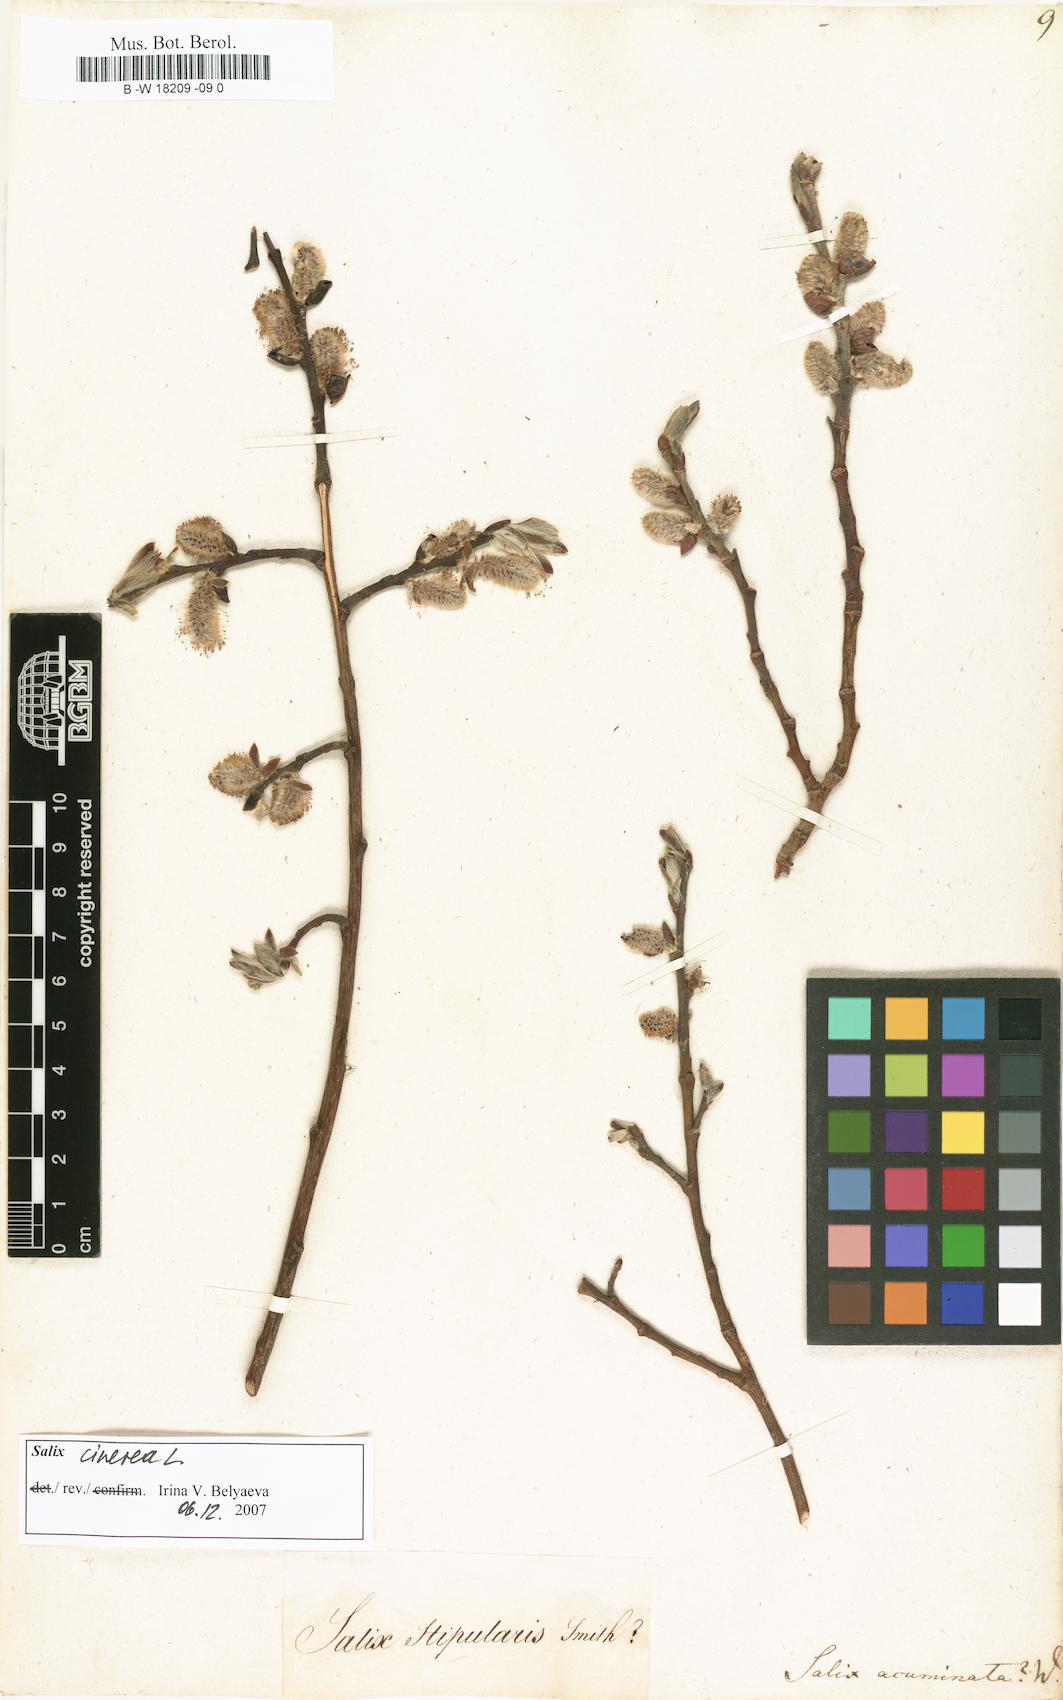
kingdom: Plantae
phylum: Tracheophyta
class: Magnoliopsida
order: Malpighiales
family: Salicaceae
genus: Salix
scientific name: Salix
